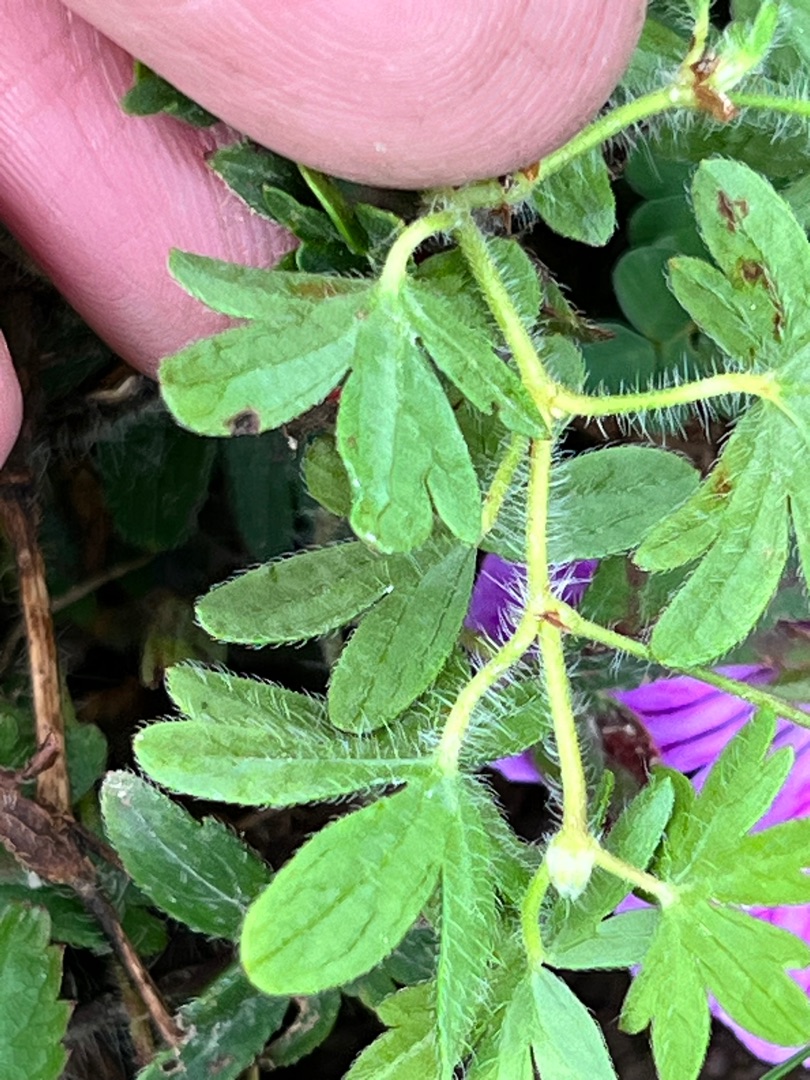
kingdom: Plantae
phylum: Tracheophyta
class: Magnoliopsida
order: Geraniales
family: Geraniaceae
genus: Geranium
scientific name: Geranium sanguineum
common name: Blodrød storkenæb
